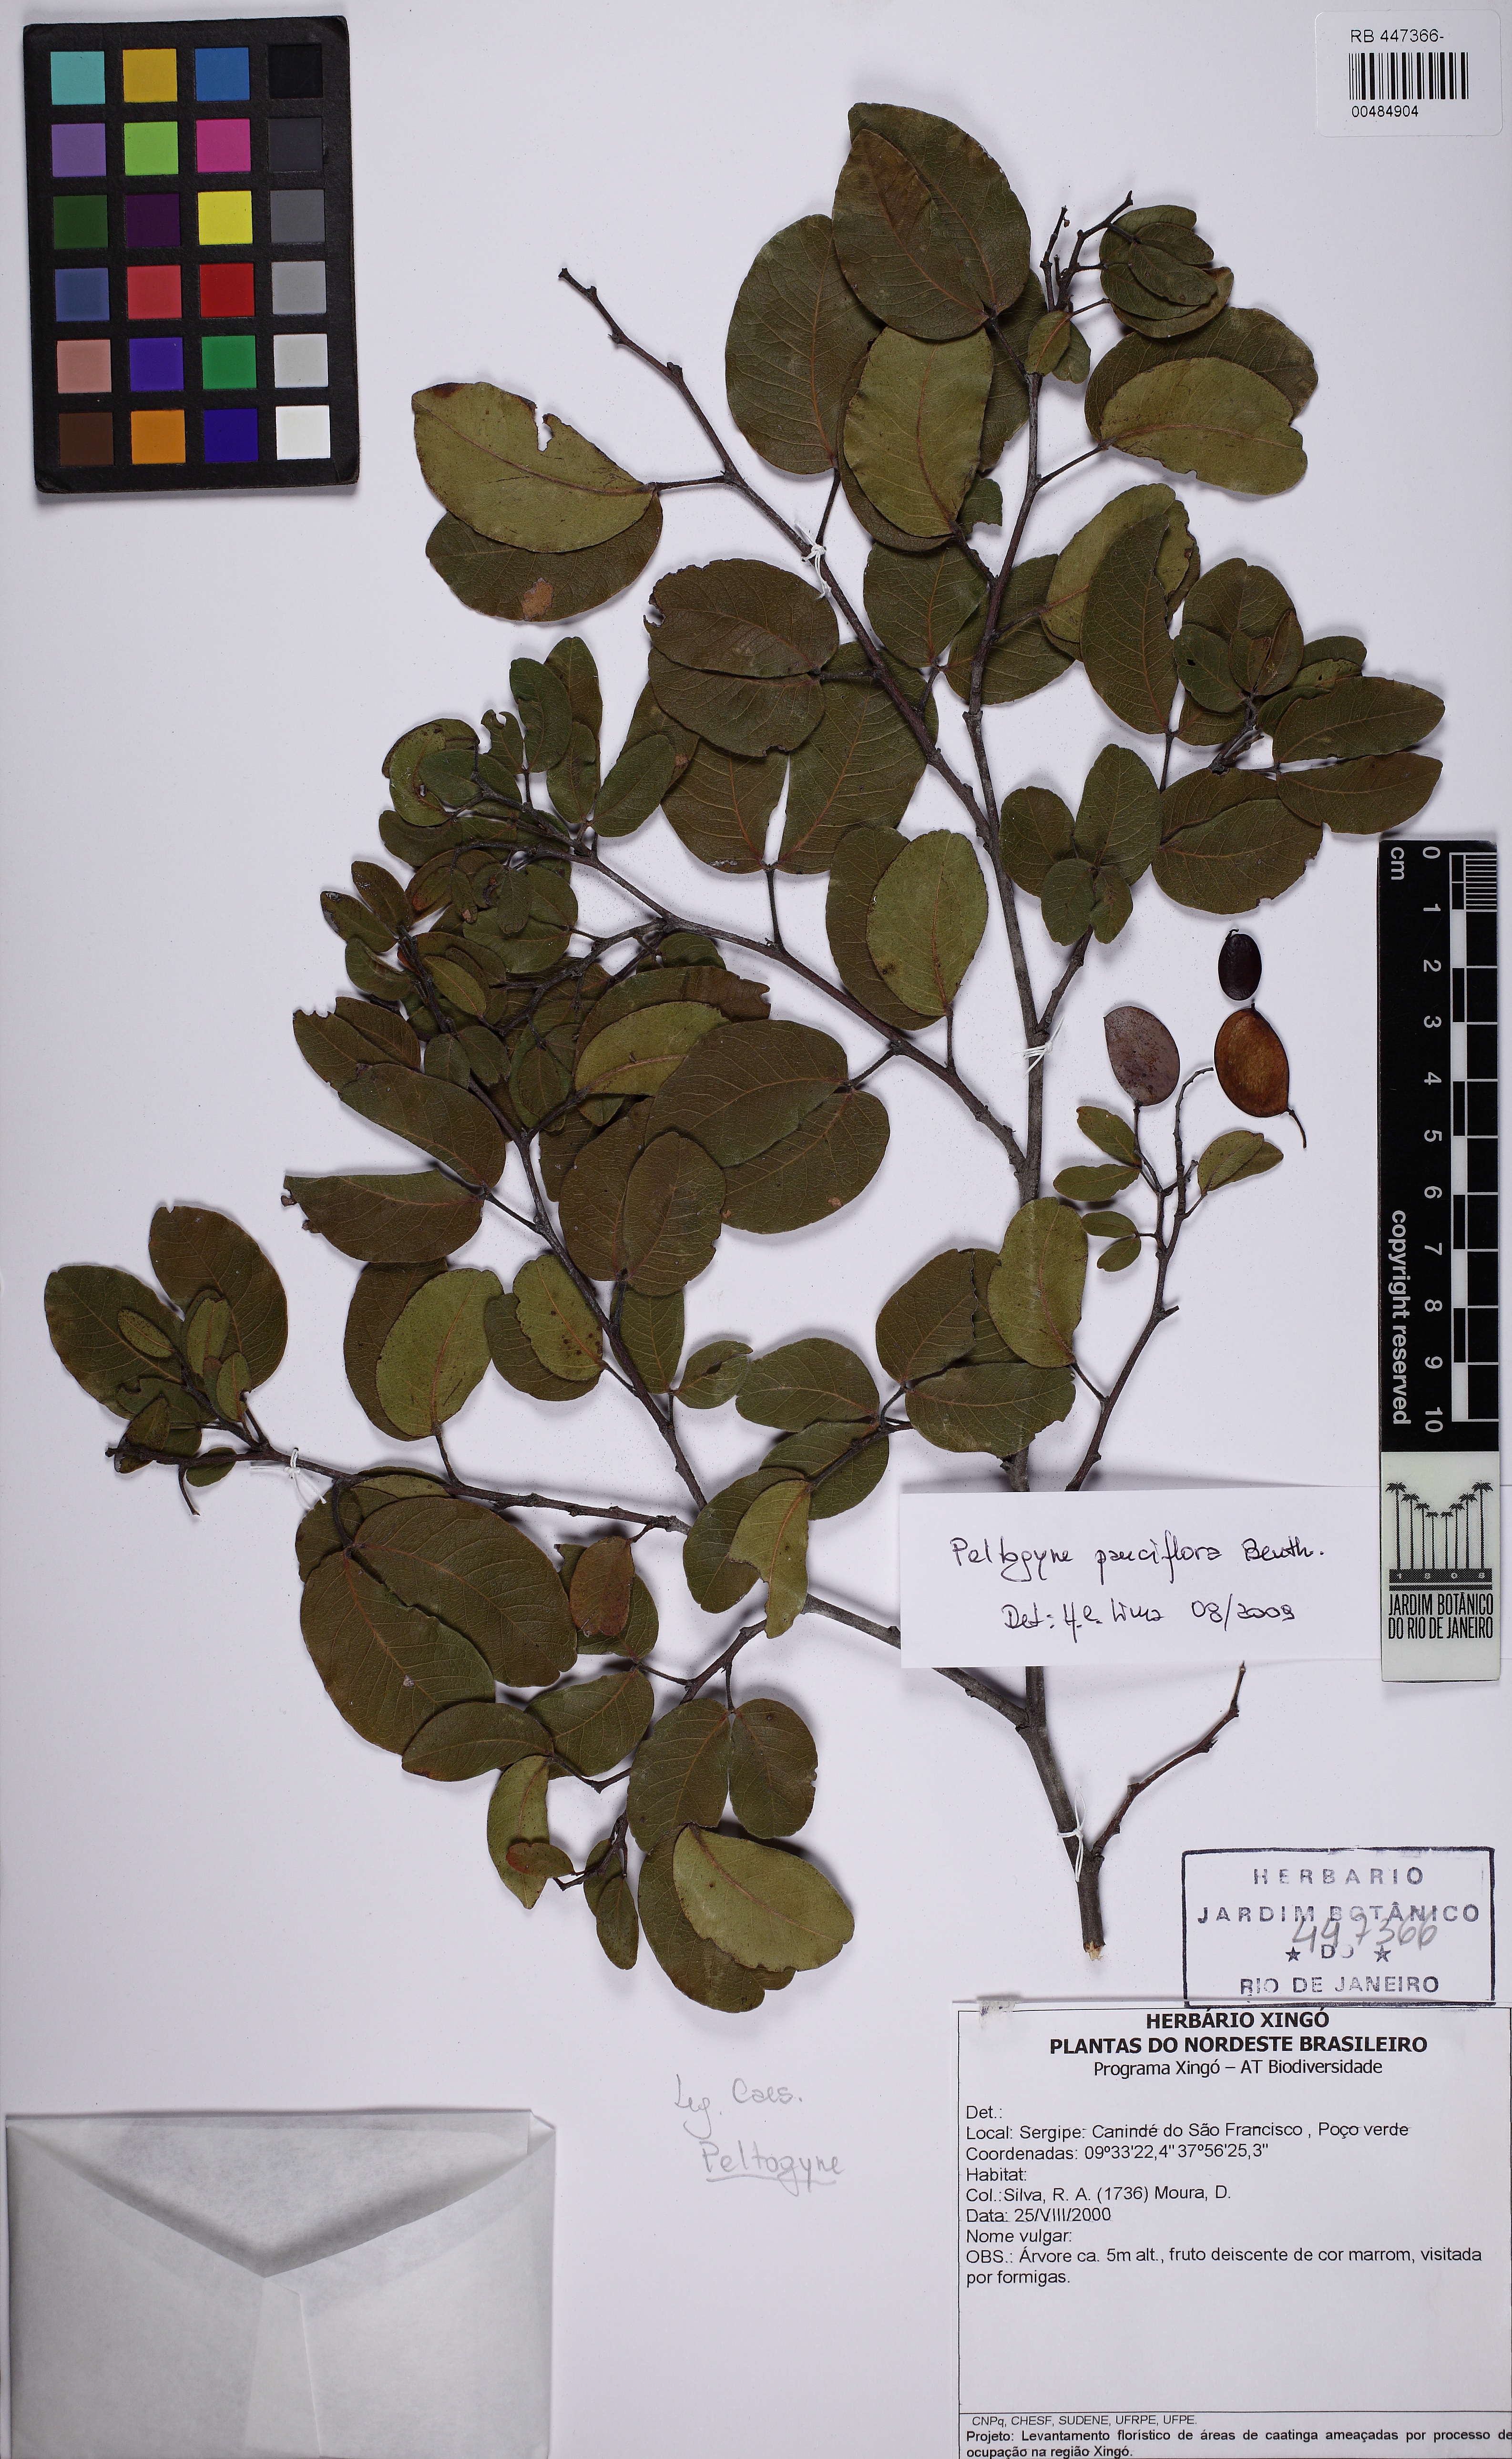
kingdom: Plantae
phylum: Tracheophyta
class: Magnoliopsida
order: Fabales
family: Fabaceae
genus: Peltogyne
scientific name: Peltogyne
